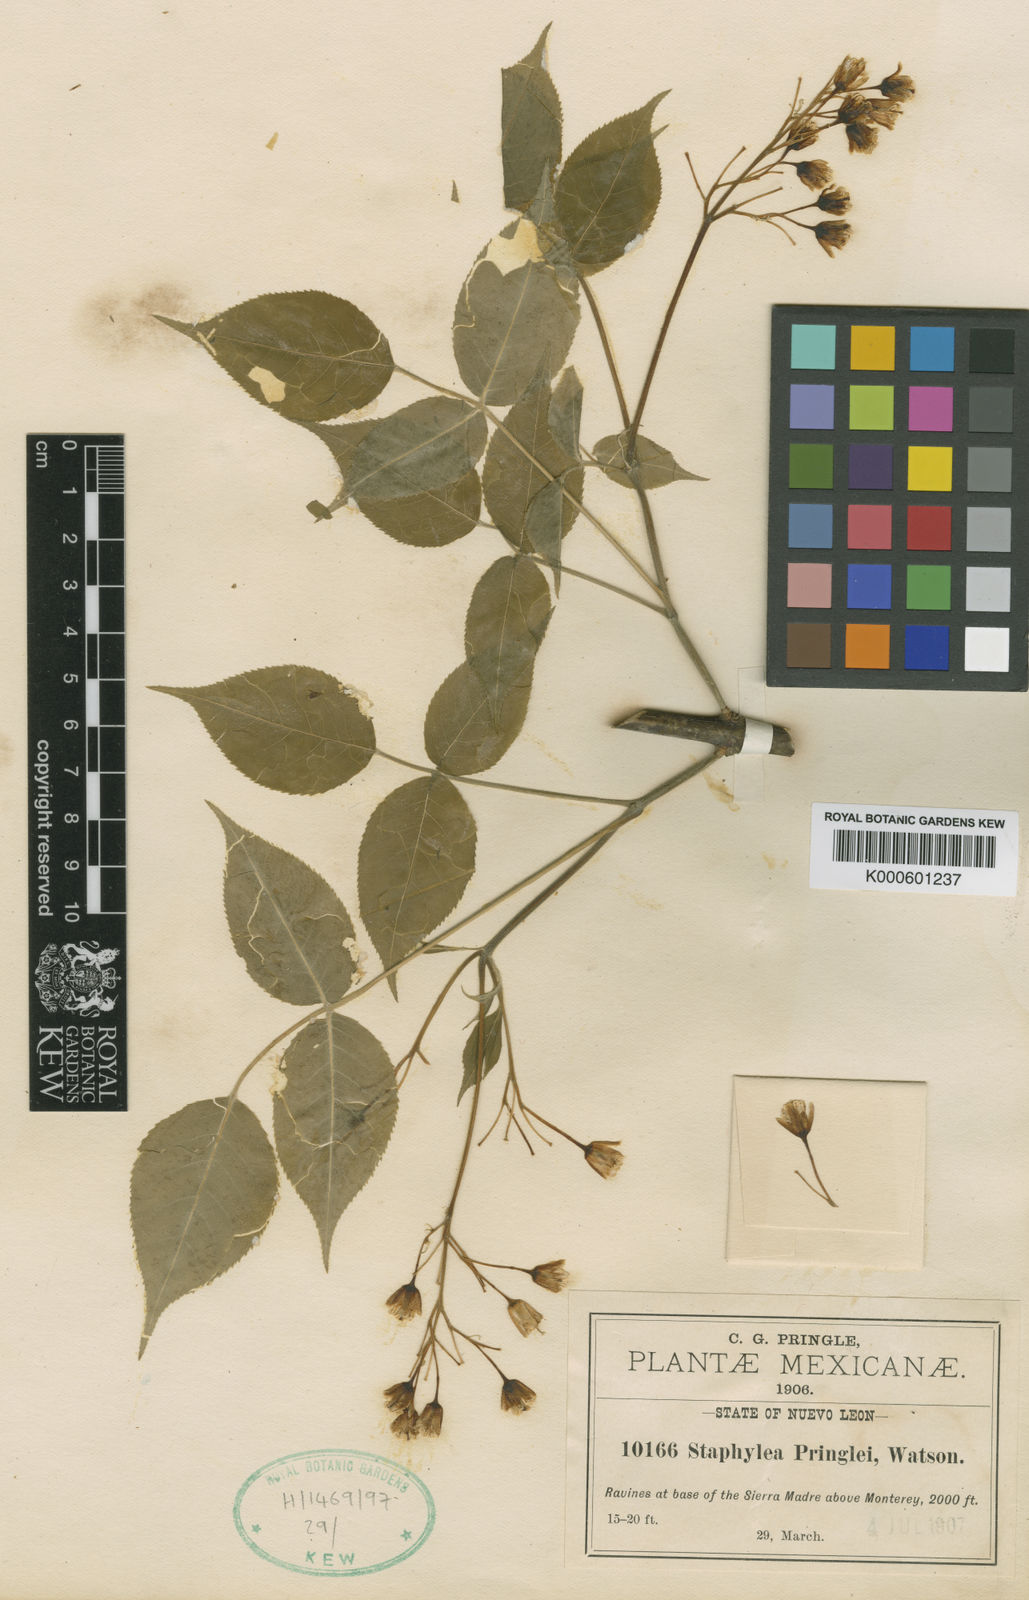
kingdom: Plantae
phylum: Tracheophyta
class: Magnoliopsida
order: Crossosomatales
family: Staphyleaceae
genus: Staphylea
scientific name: Staphylea pringlei
